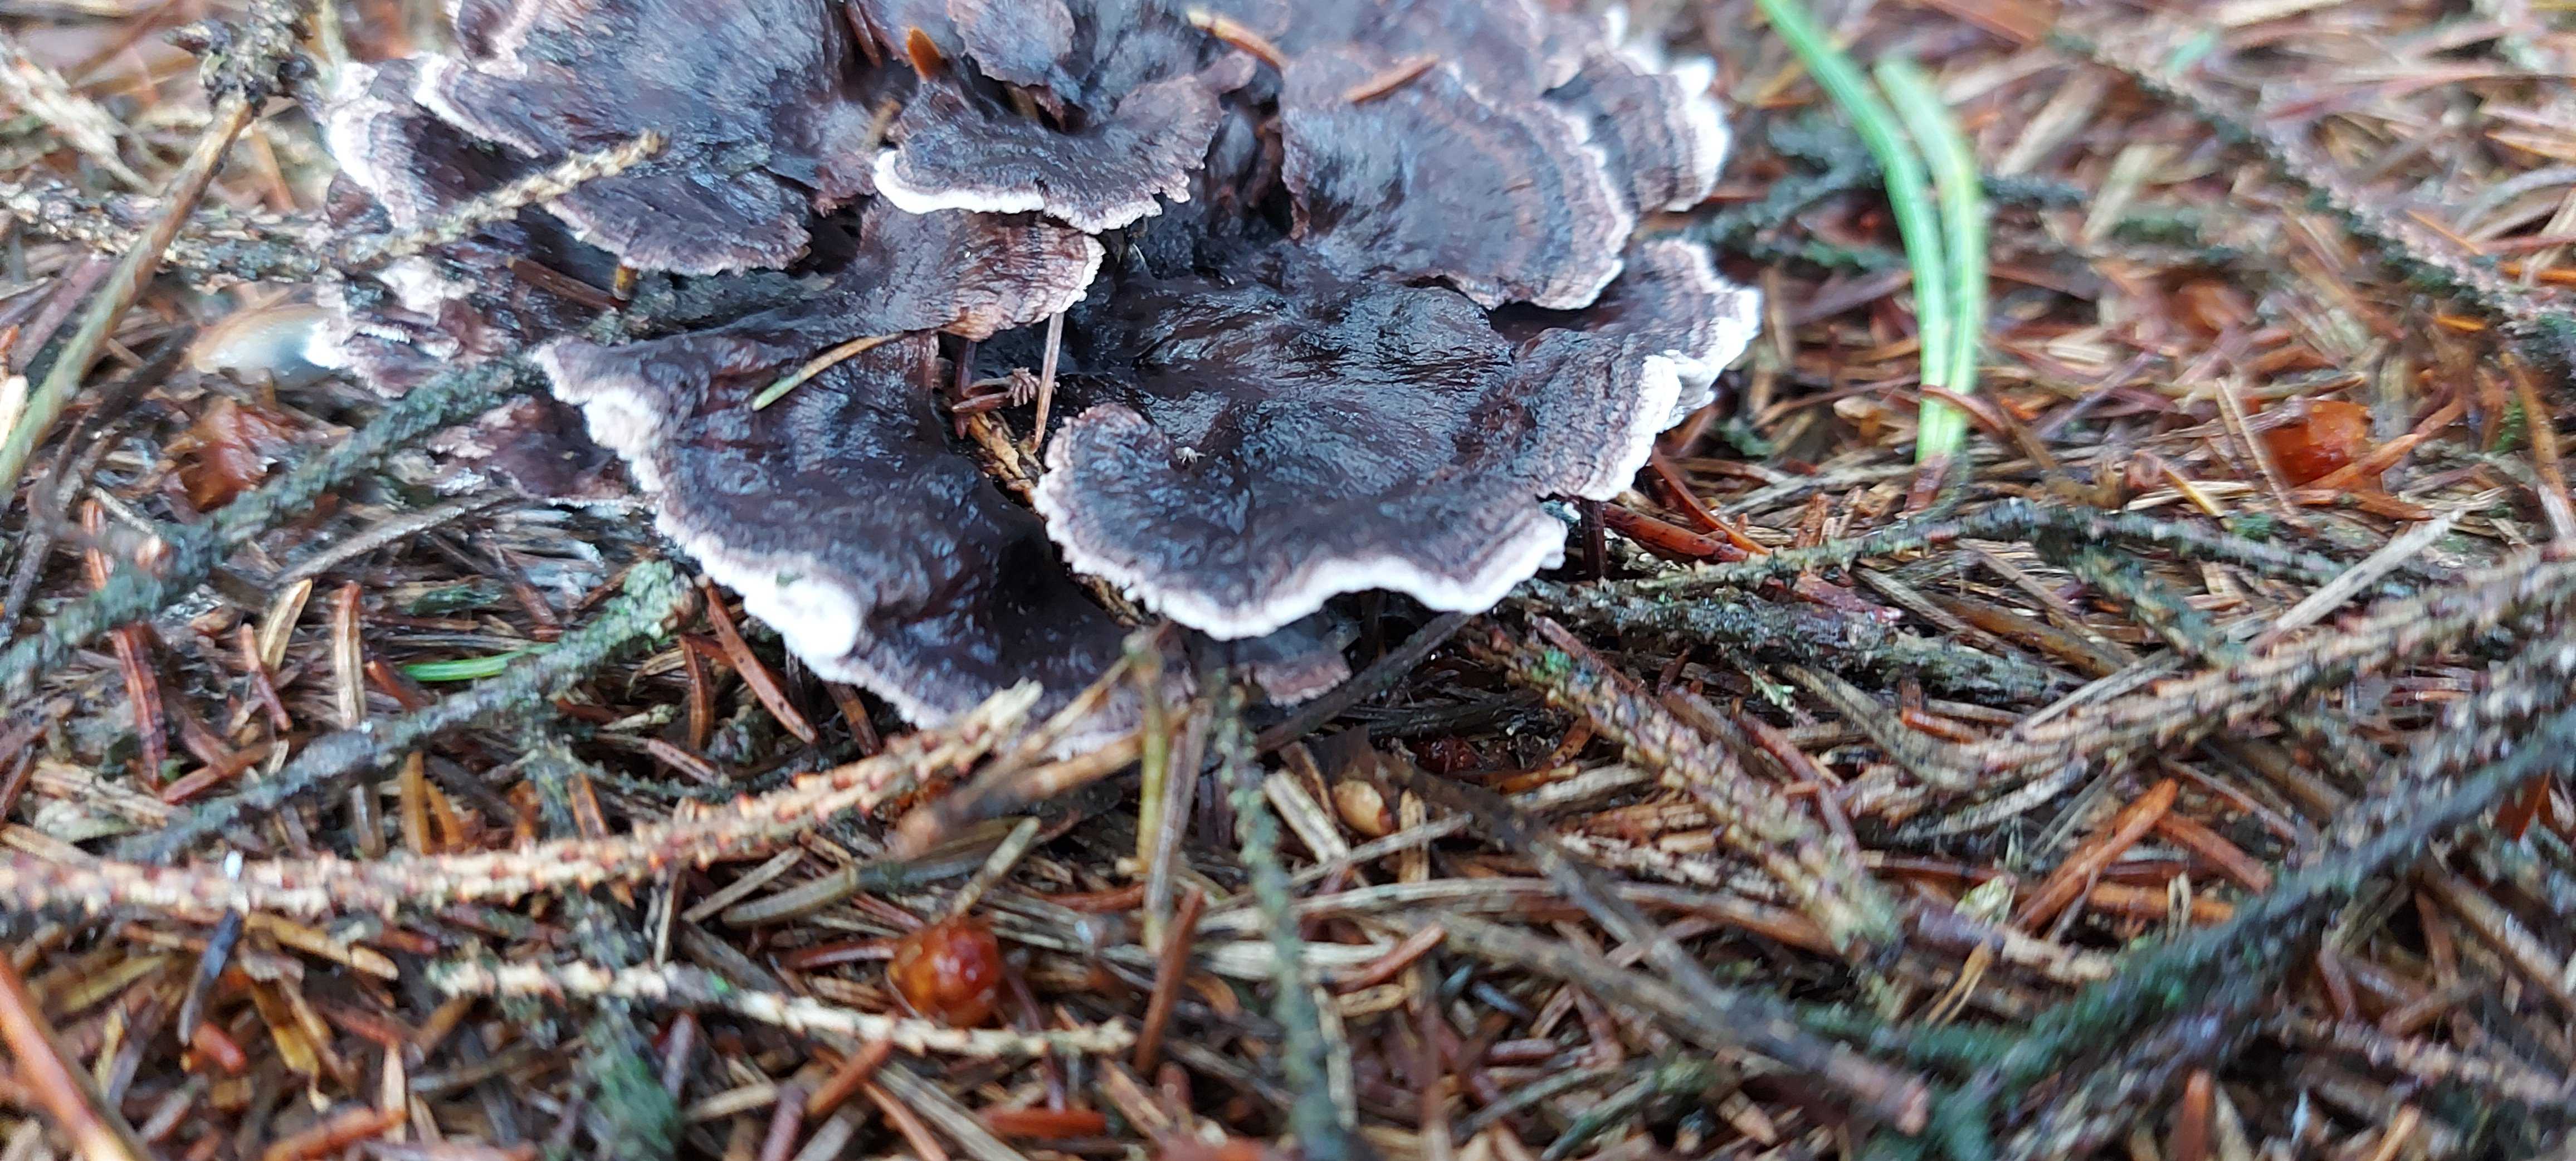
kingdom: Fungi
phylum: Basidiomycota
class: Agaricomycetes
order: Thelephorales
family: Thelephoraceae
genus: Phellodon
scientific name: Phellodon tomentosus
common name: vellugtende duftpigsvamp
